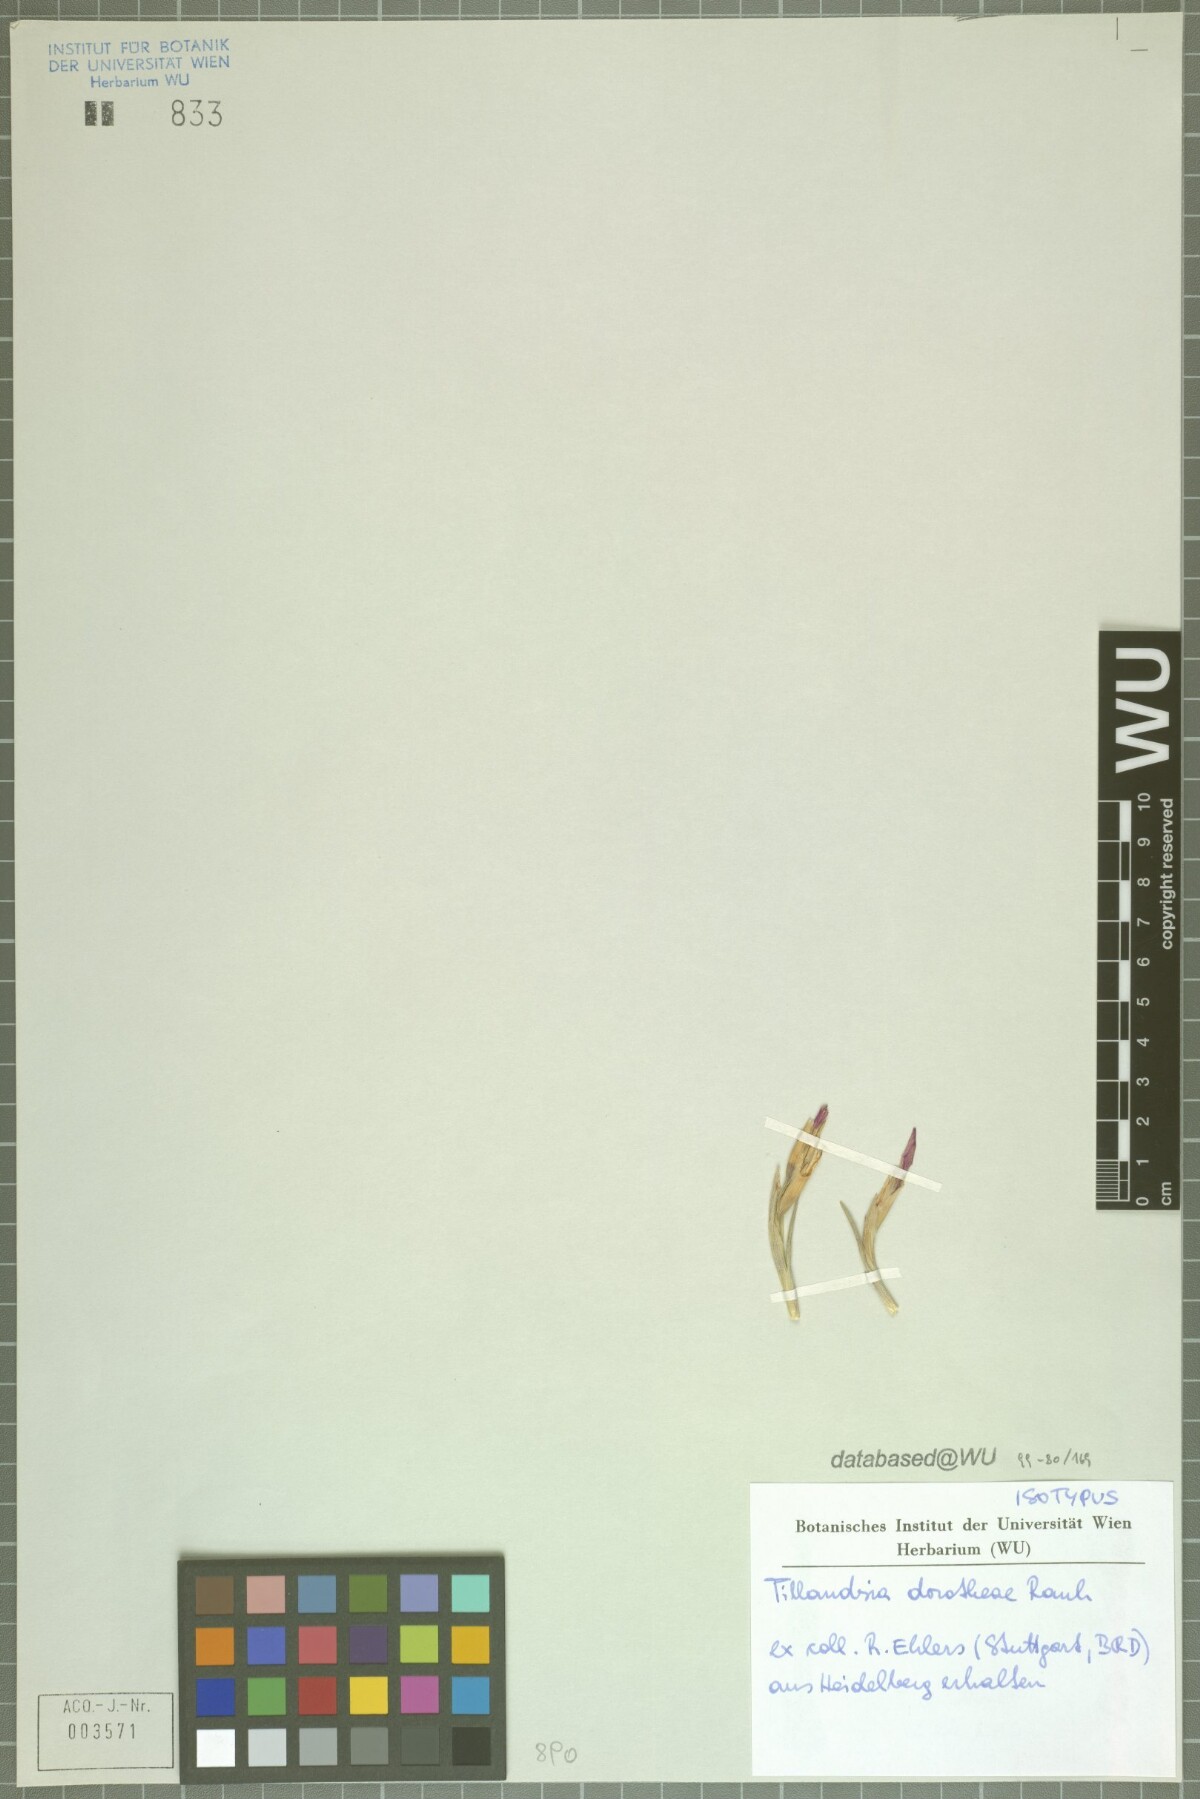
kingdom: Plantae
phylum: Tracheophyta
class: Liliopsida
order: Poales
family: Bromeliaceae
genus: Tillandsia
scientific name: Tillandsia dorotheae
